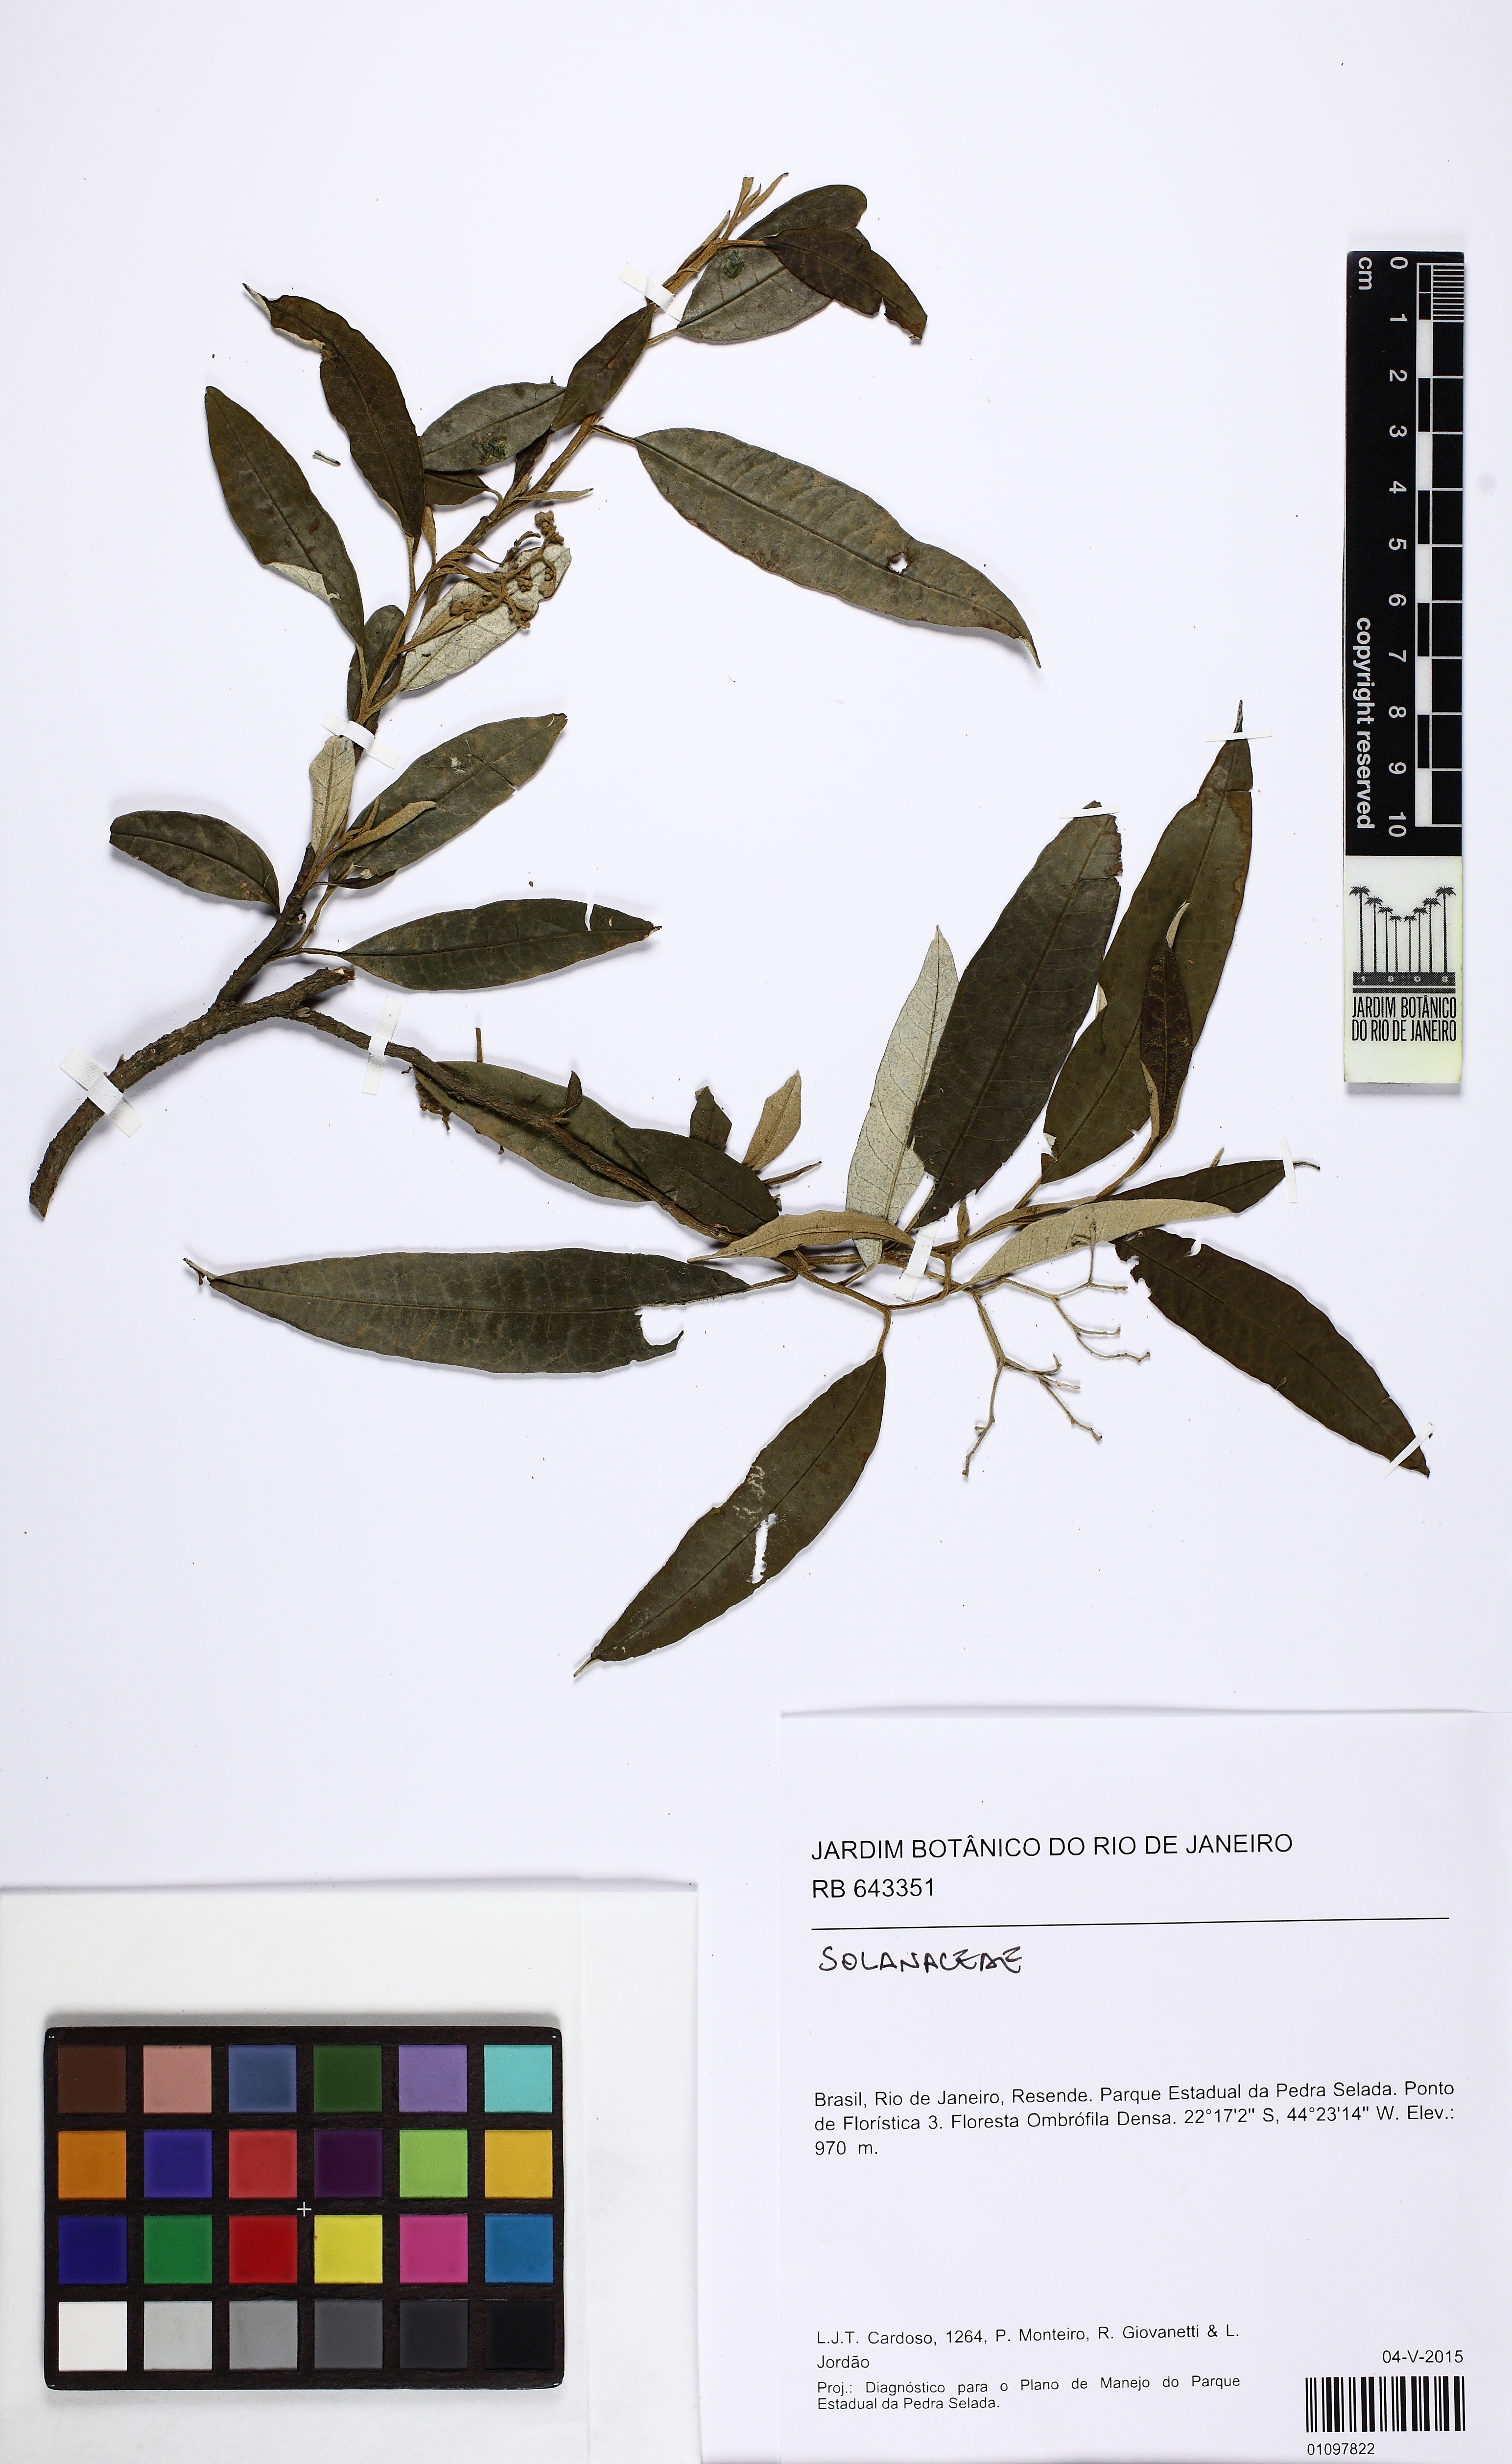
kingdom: Plantae
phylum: Tracheophyta
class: Magnoliopsida
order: Solanales
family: Solanaceae
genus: Solanum
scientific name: Solanum cinnamomeum
